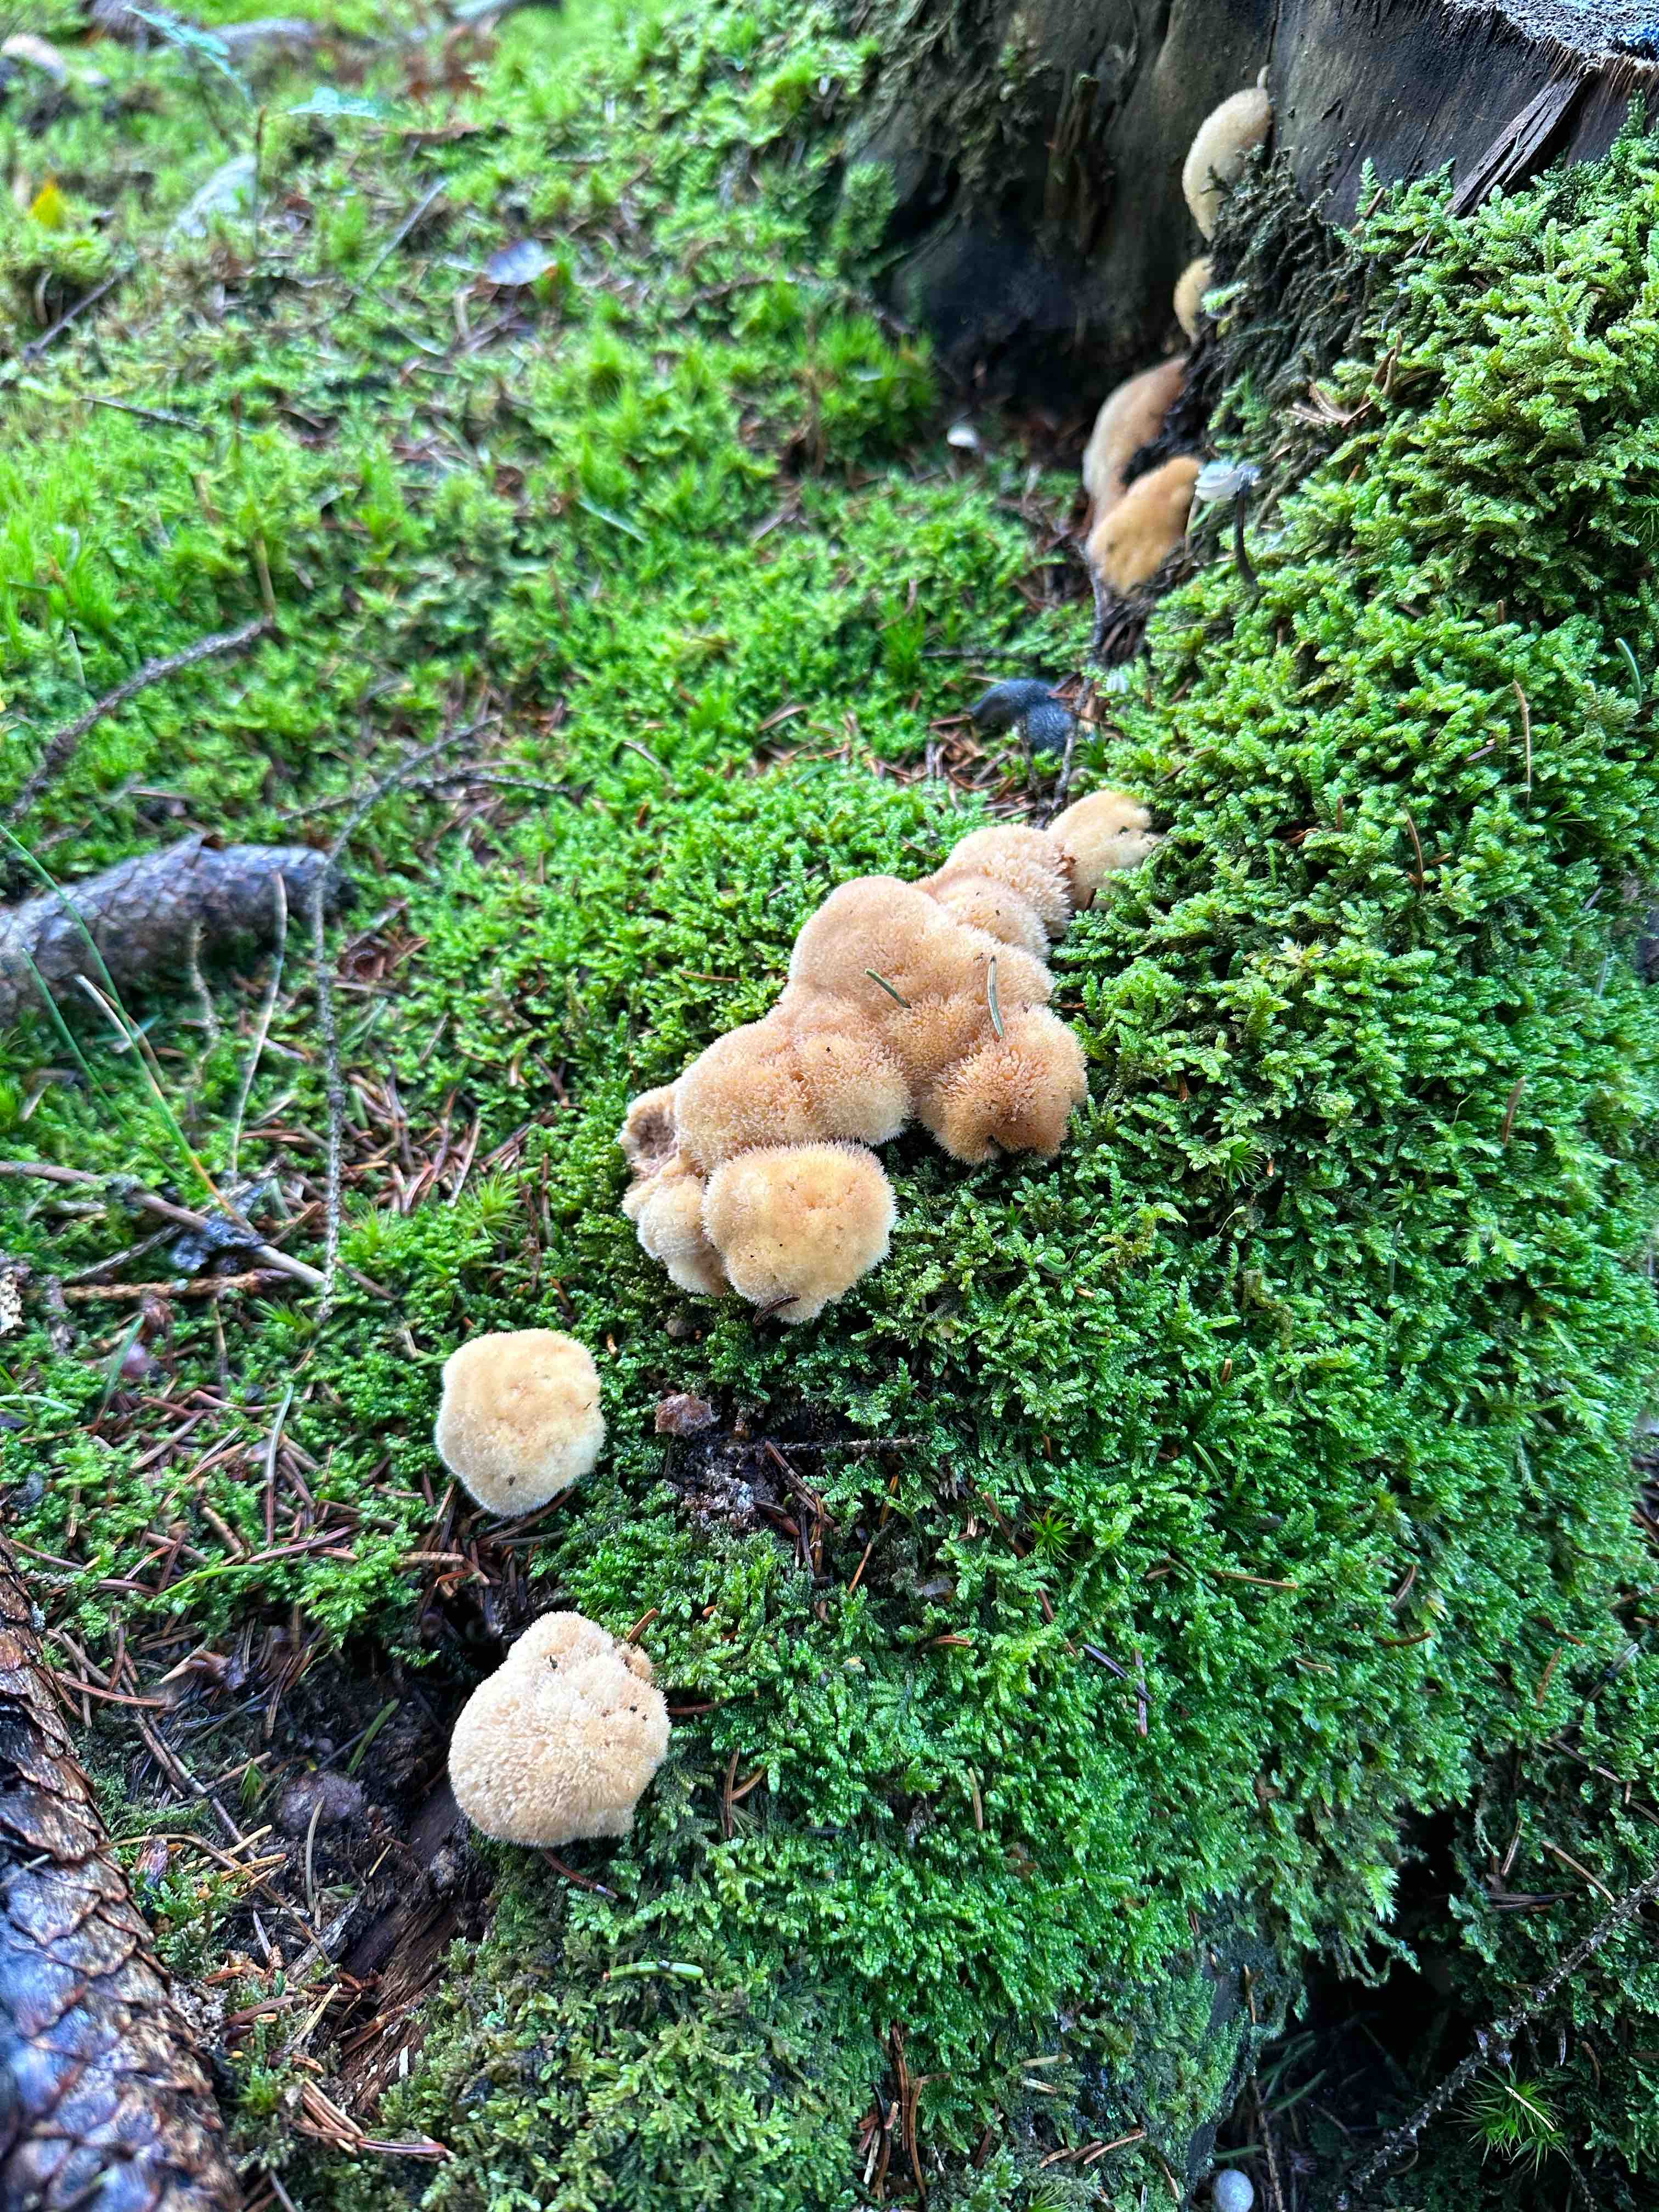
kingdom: Fungi
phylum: Basidiomycota
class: Agaricomycetes
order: Polyporales
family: Dacryobolaceae
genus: Postia
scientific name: Postia ptychogaster
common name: støvende kødporesvamp
